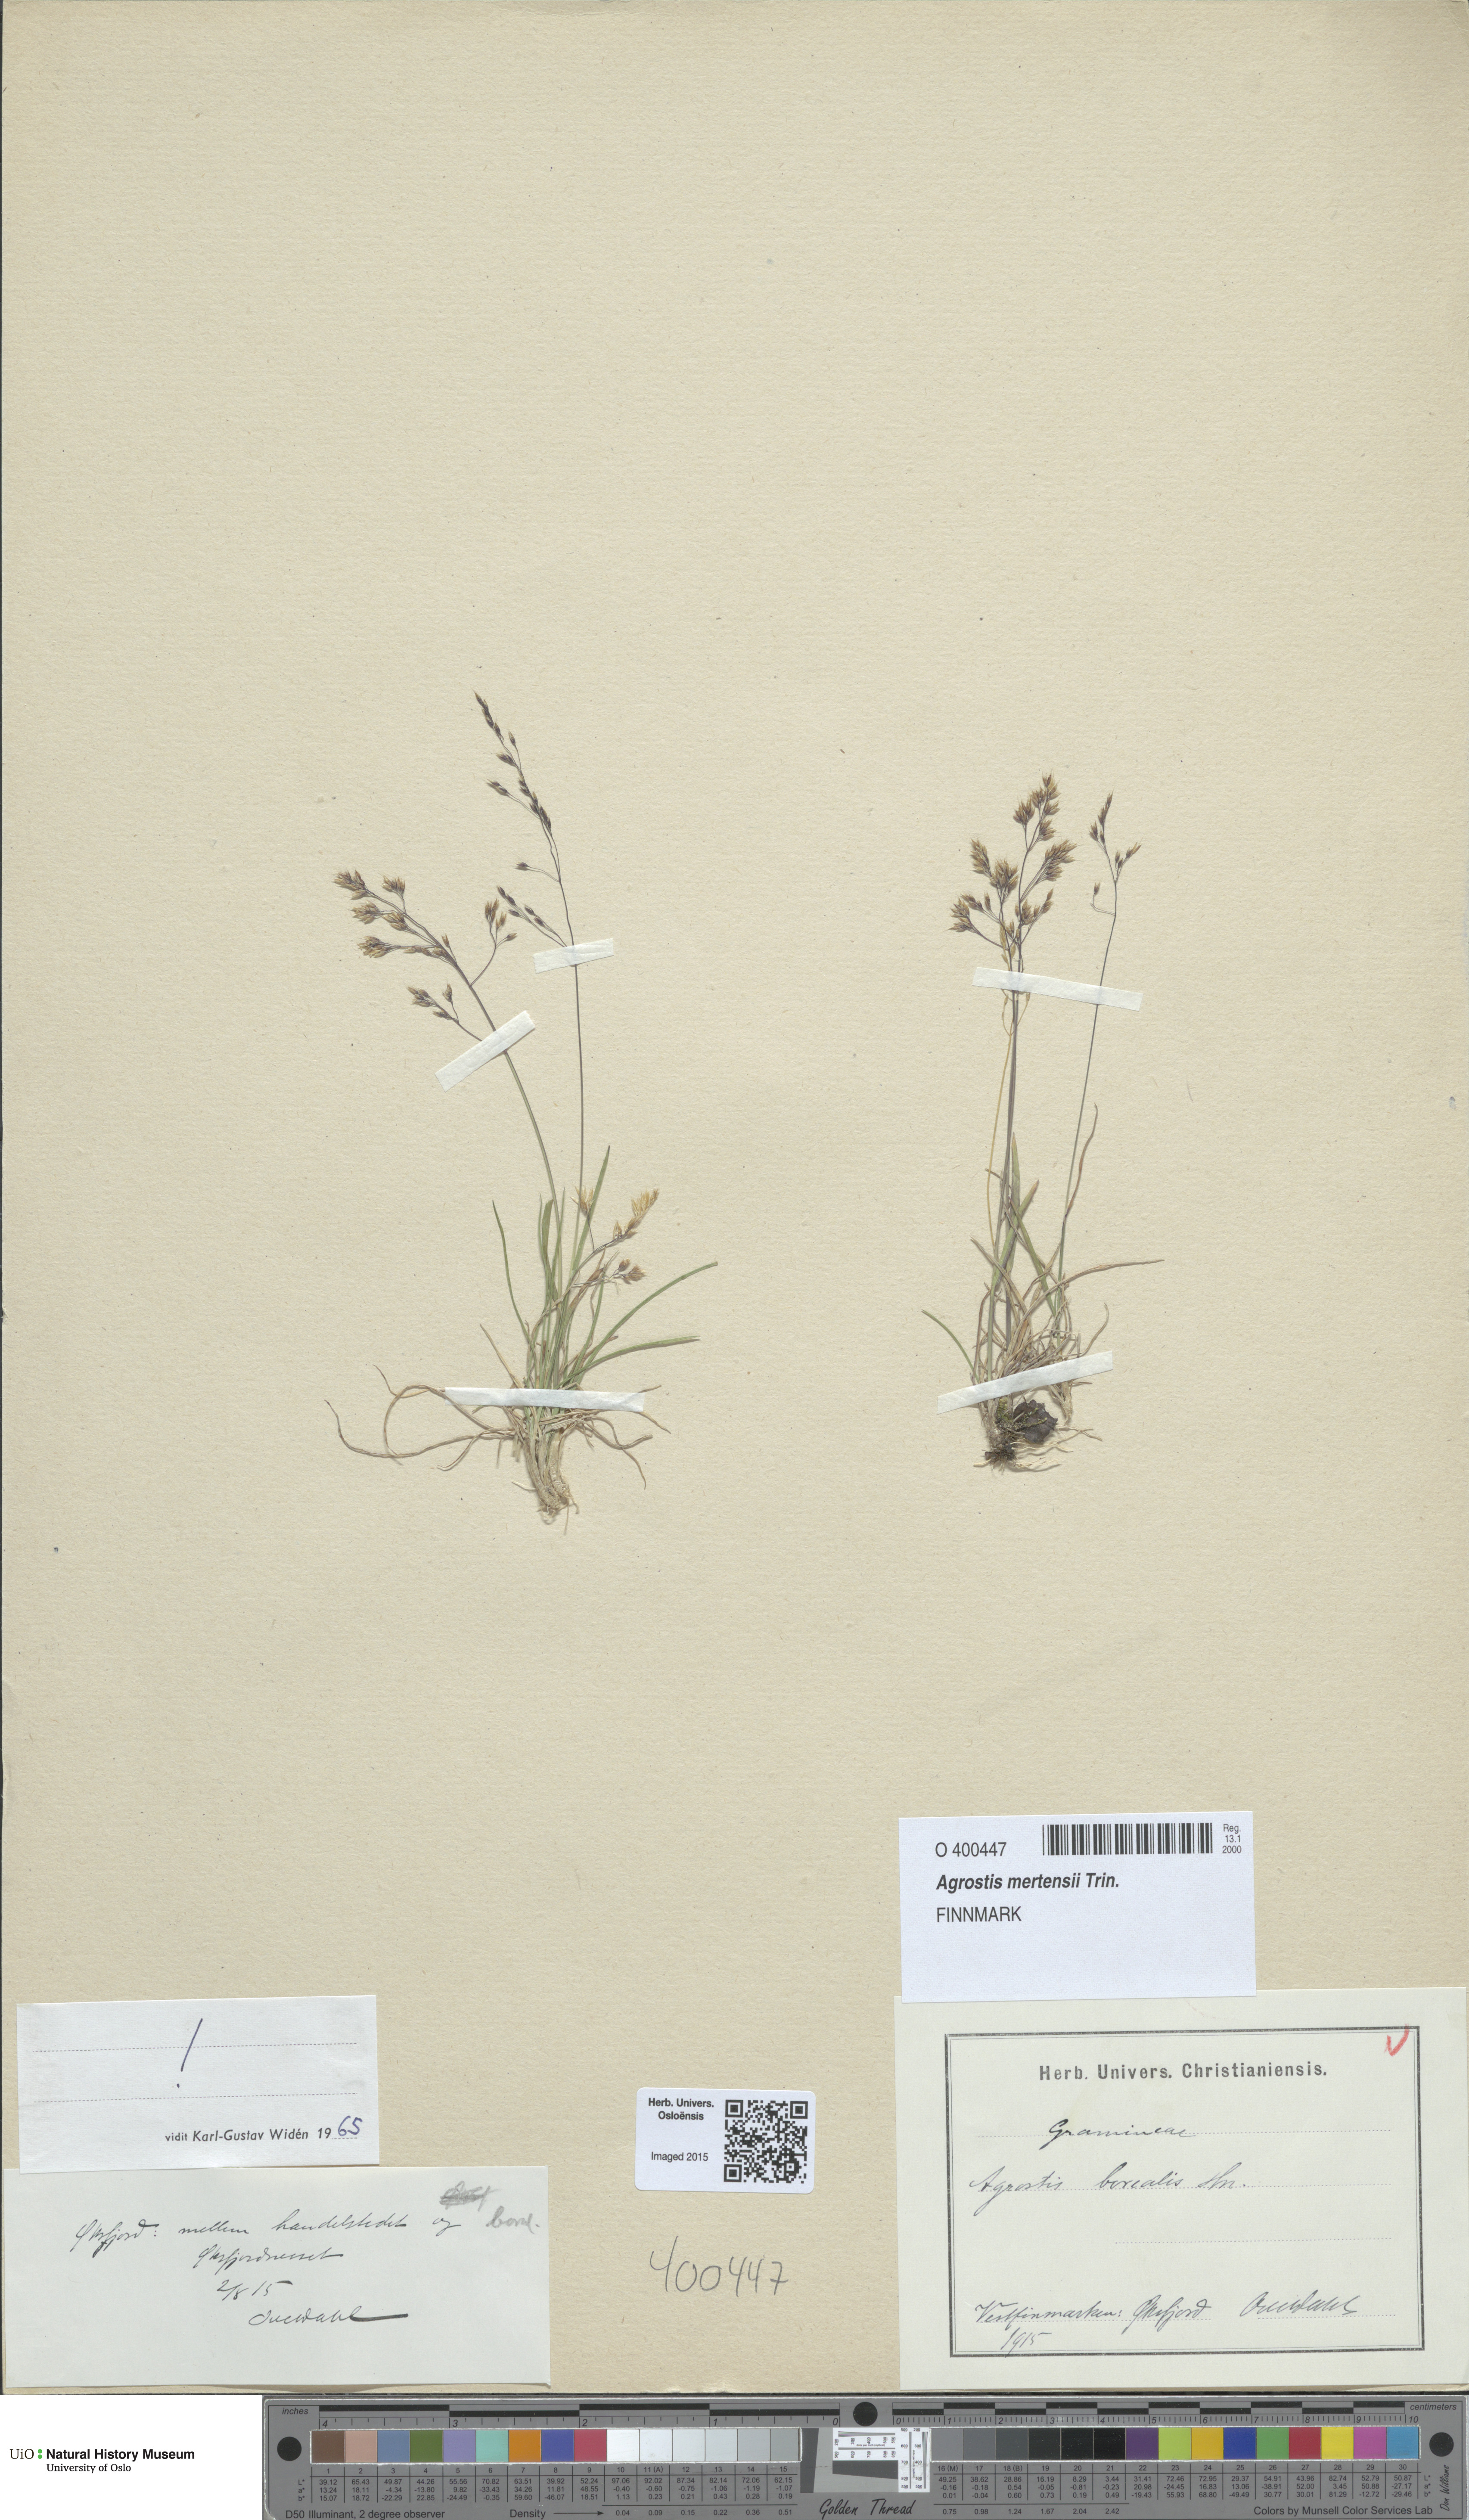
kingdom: Plantae
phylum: Tracheophyta
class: Liliopsida
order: Poales
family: Poaceae
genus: Agrostis
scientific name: Agrostis mertensii
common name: Northern bent
